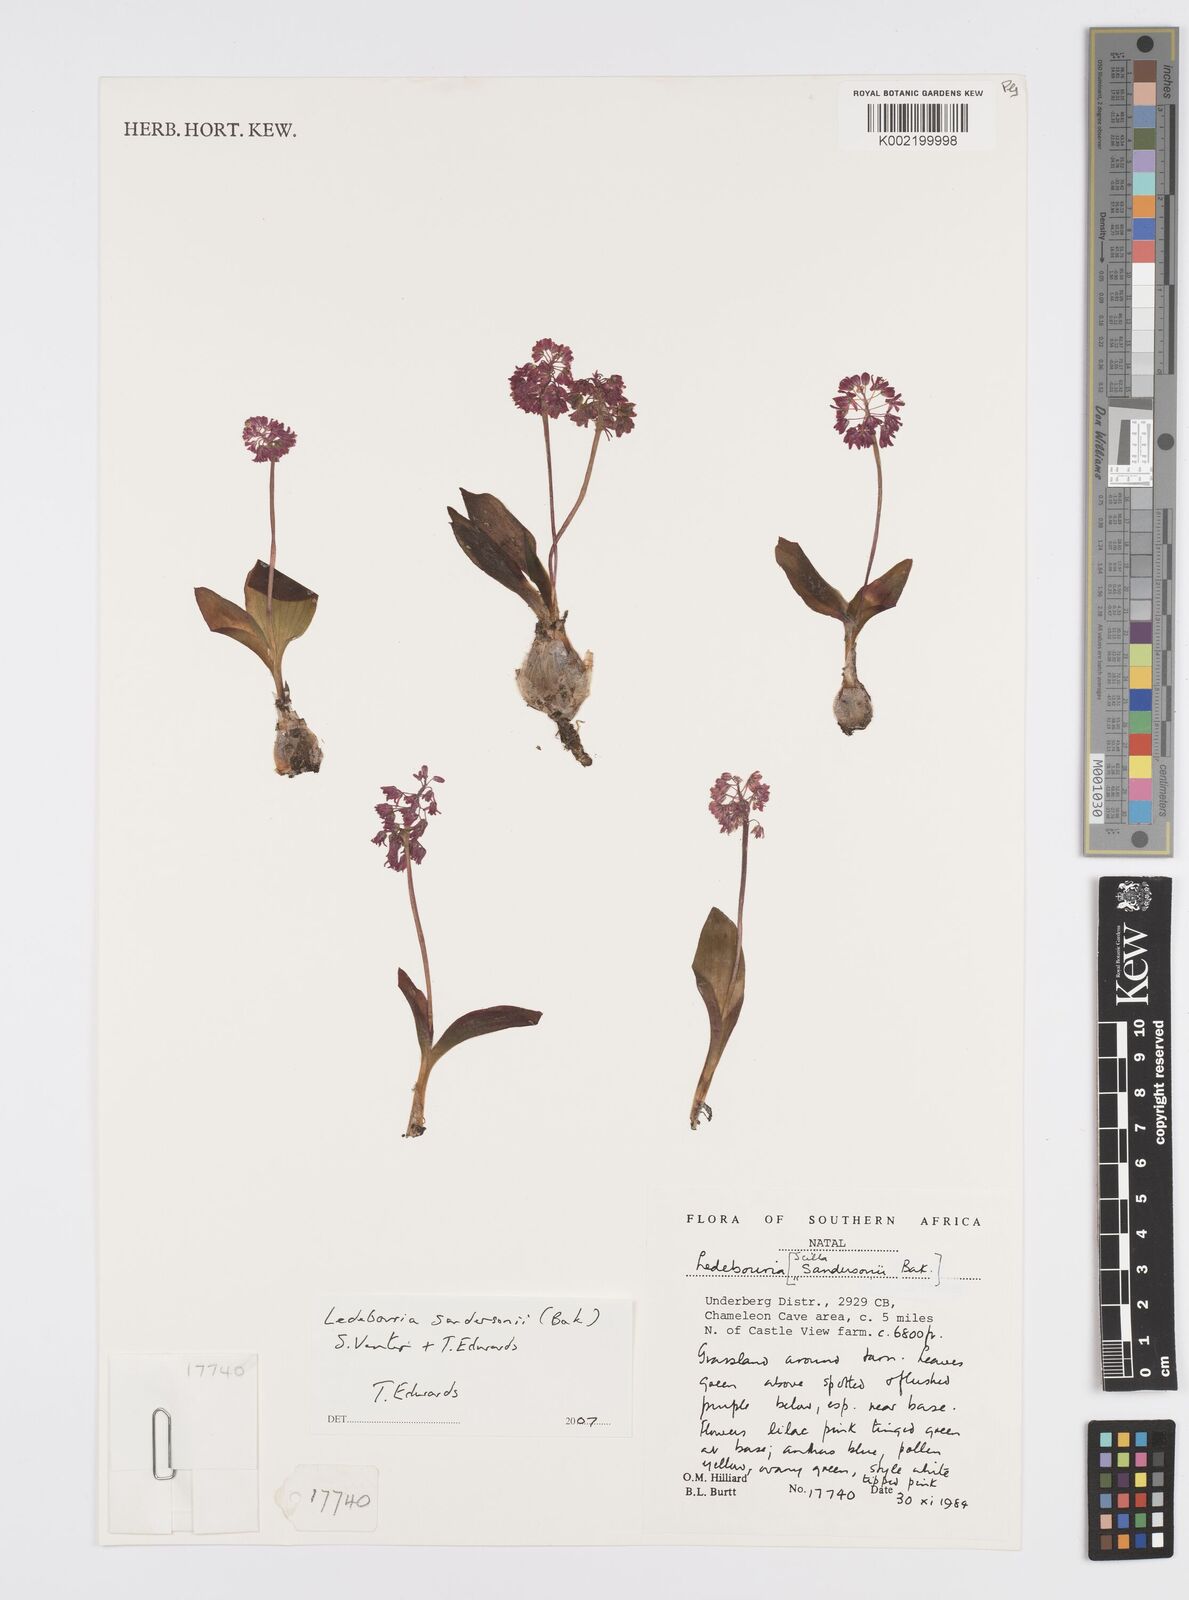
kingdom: Plantae
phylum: Tracheophyta
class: Liliopsida
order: Asparagales
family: Asparagaceae
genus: Ledebouria
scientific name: Ledebouria sandersonii
